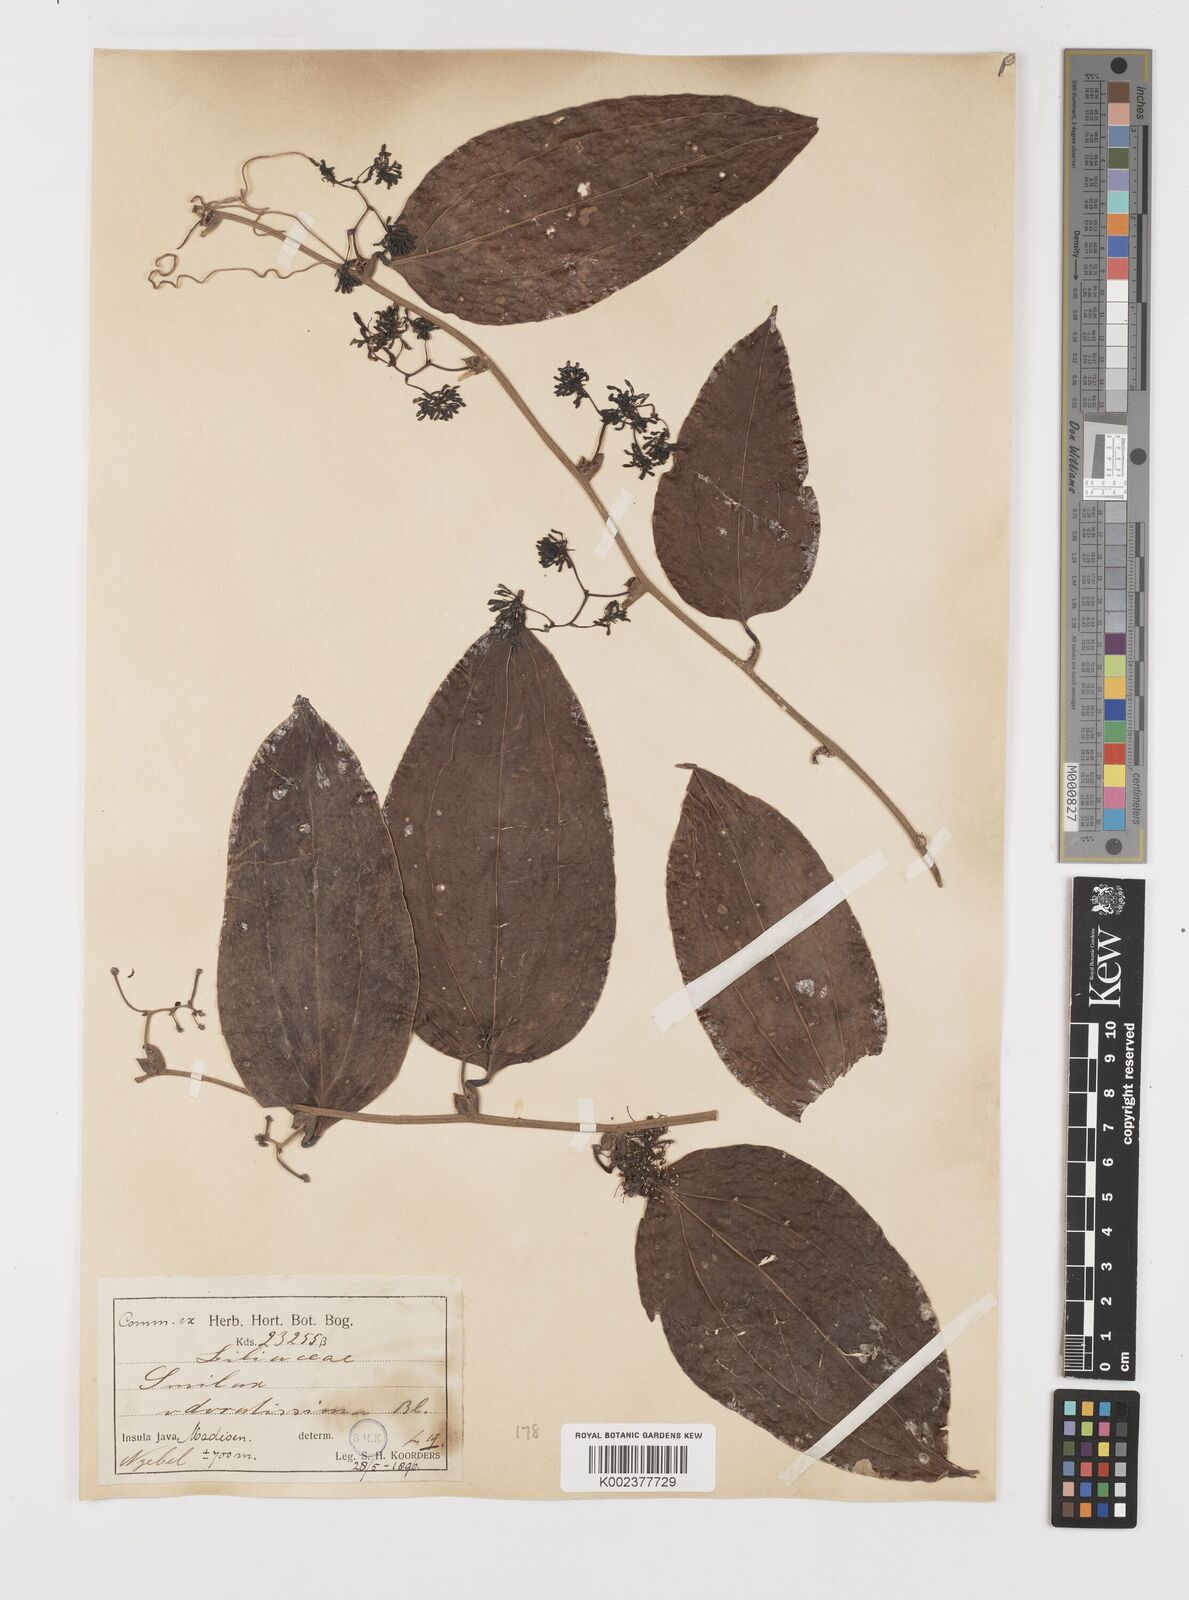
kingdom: Plantae
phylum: Tracheophyta
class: Liliopsida
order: Liliales
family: Smilacaceae
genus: Smilax
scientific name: Smilax odoratissima
